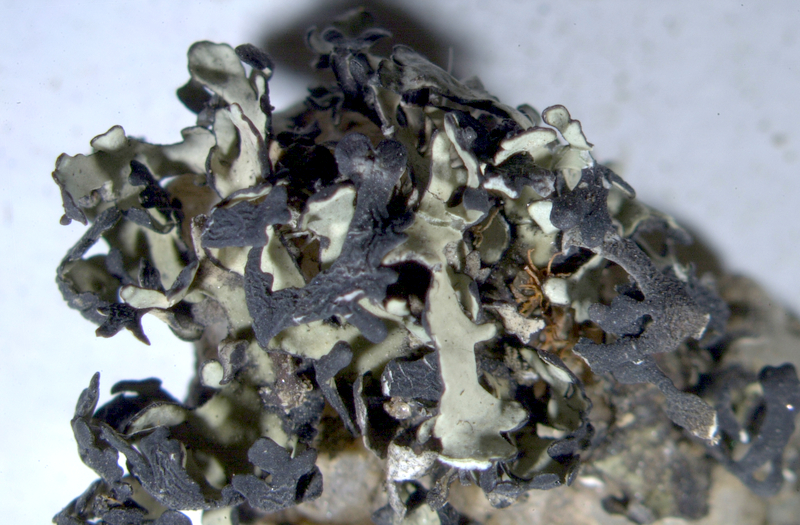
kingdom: Fungi
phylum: Ascomycota
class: Lecanoromycetes
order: Lecanorales
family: Ramalinaceae
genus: Ramalina
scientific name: Ramalina capensis
